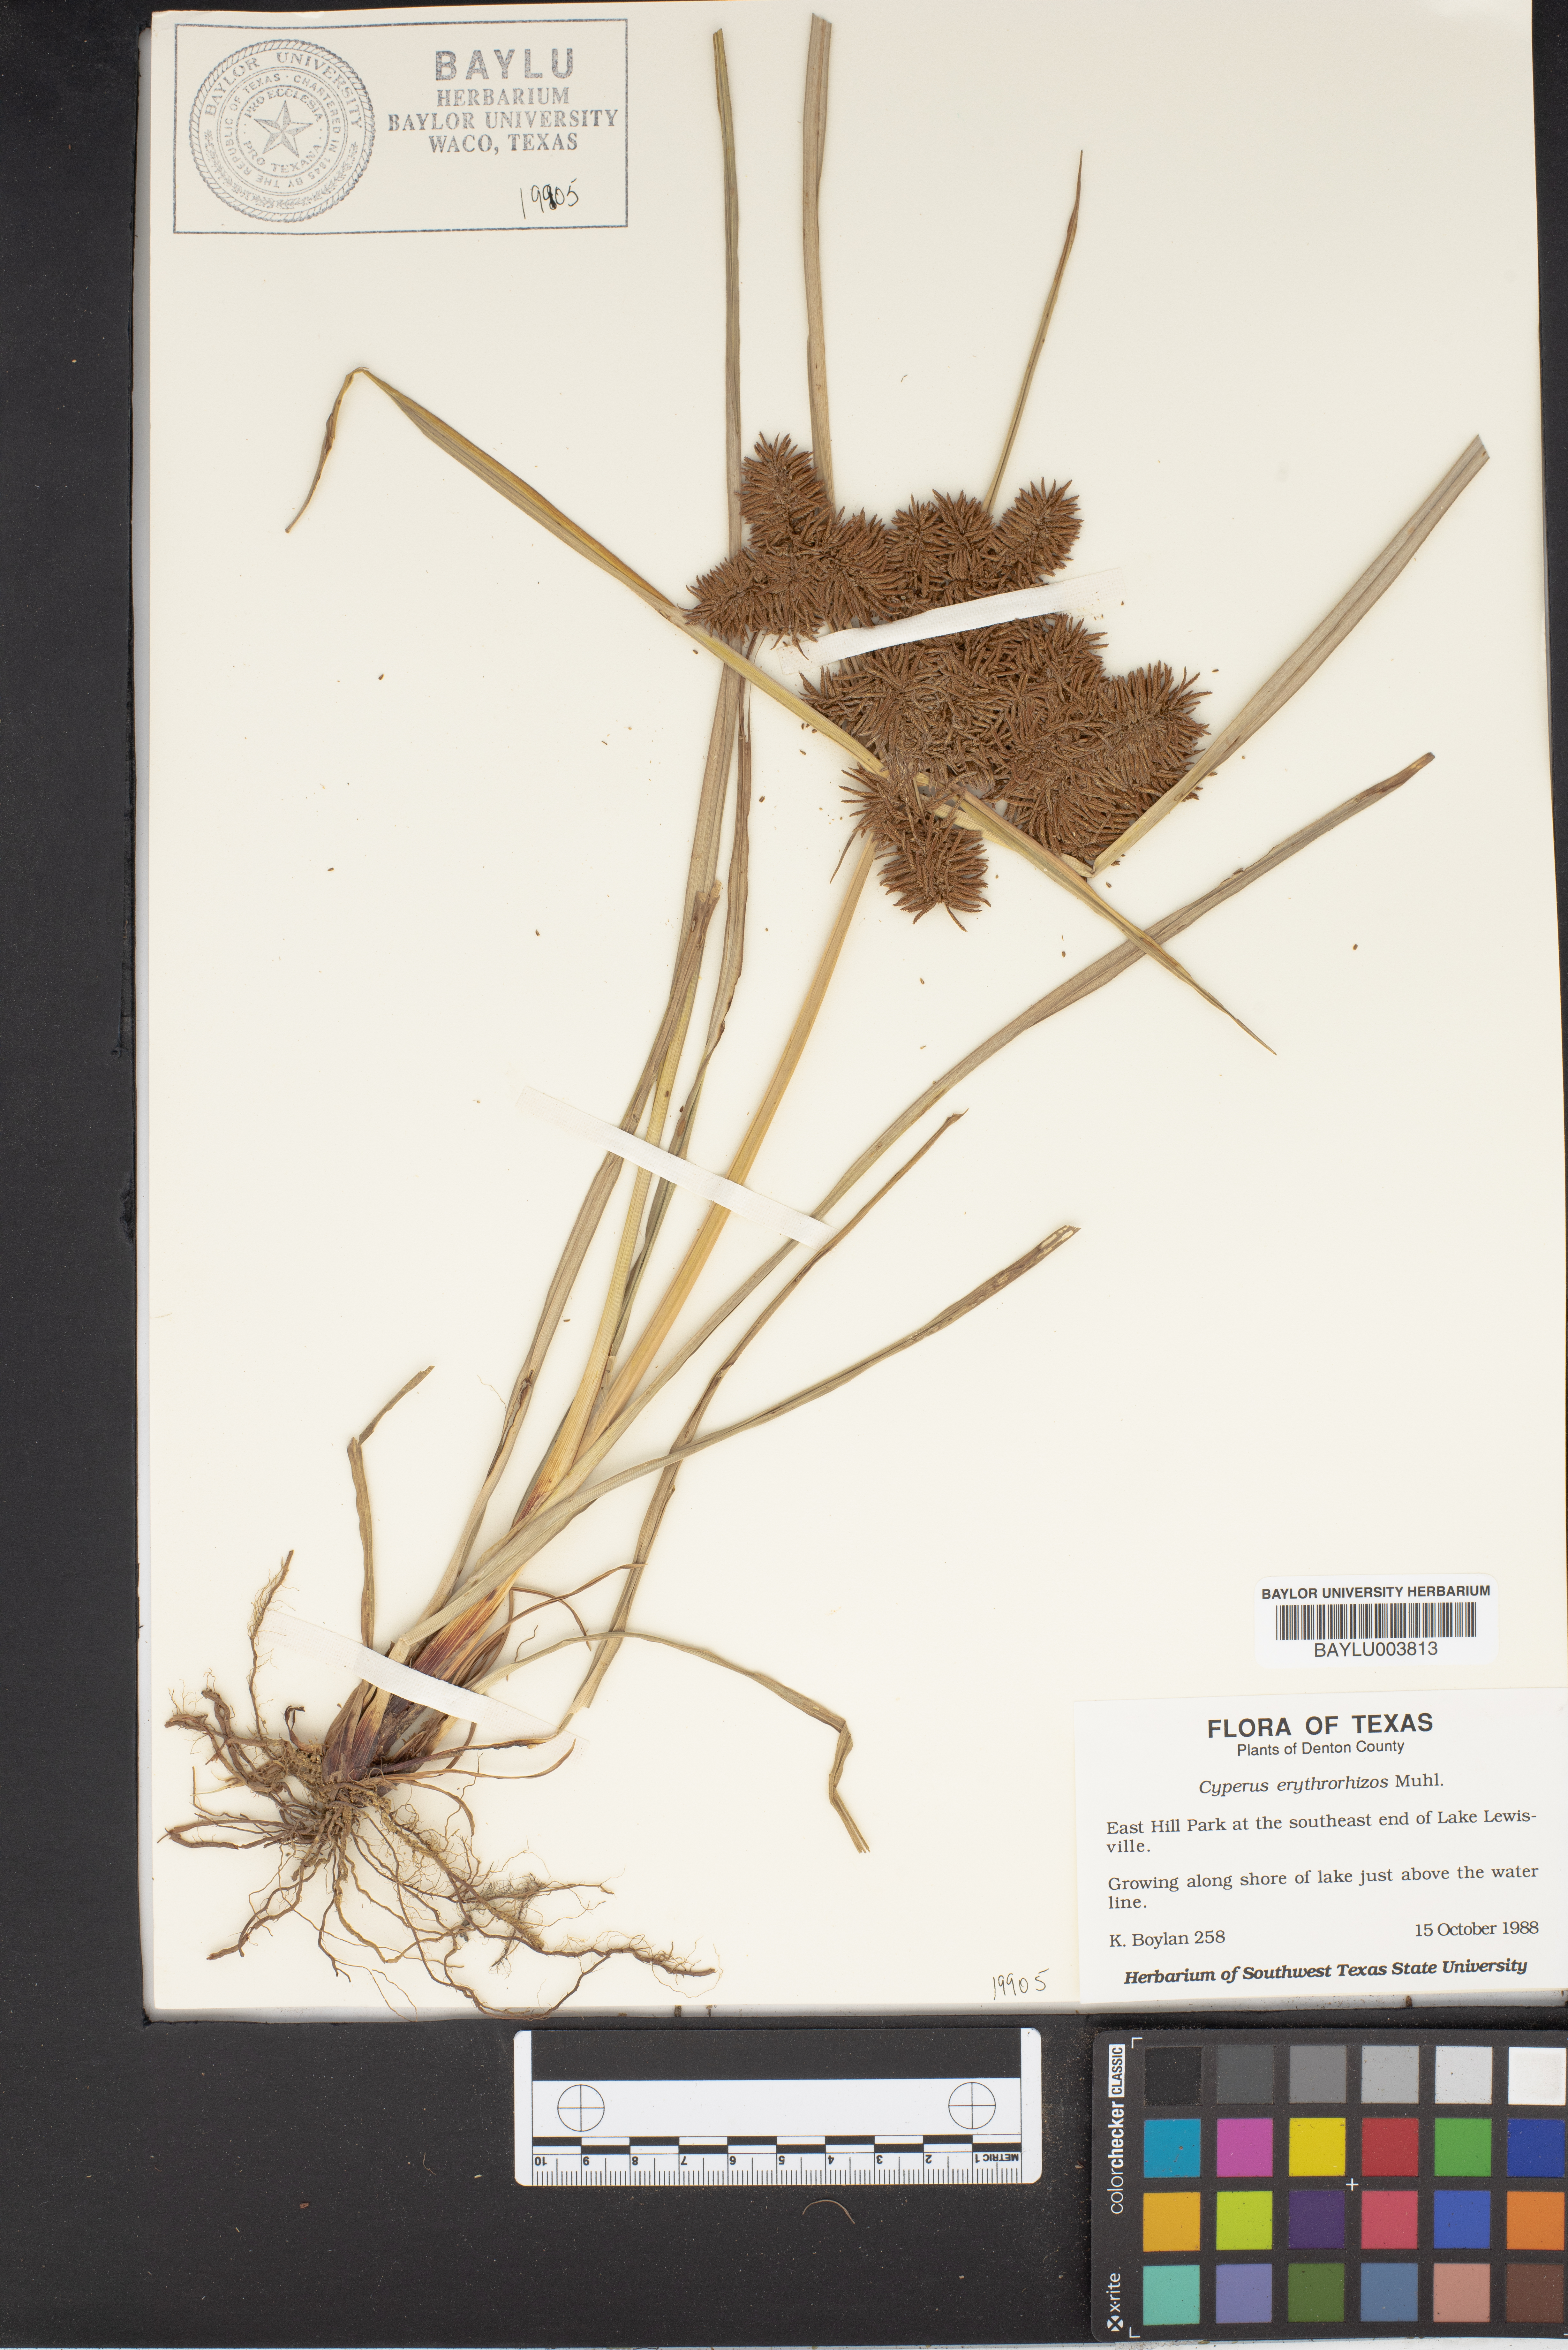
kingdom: Plantae
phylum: Tracheophyta
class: Liliopsida
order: Poales
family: Cyperaceae
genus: Cyperus
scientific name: Cyperus erythrorhizos
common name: Red-root flat sedge
